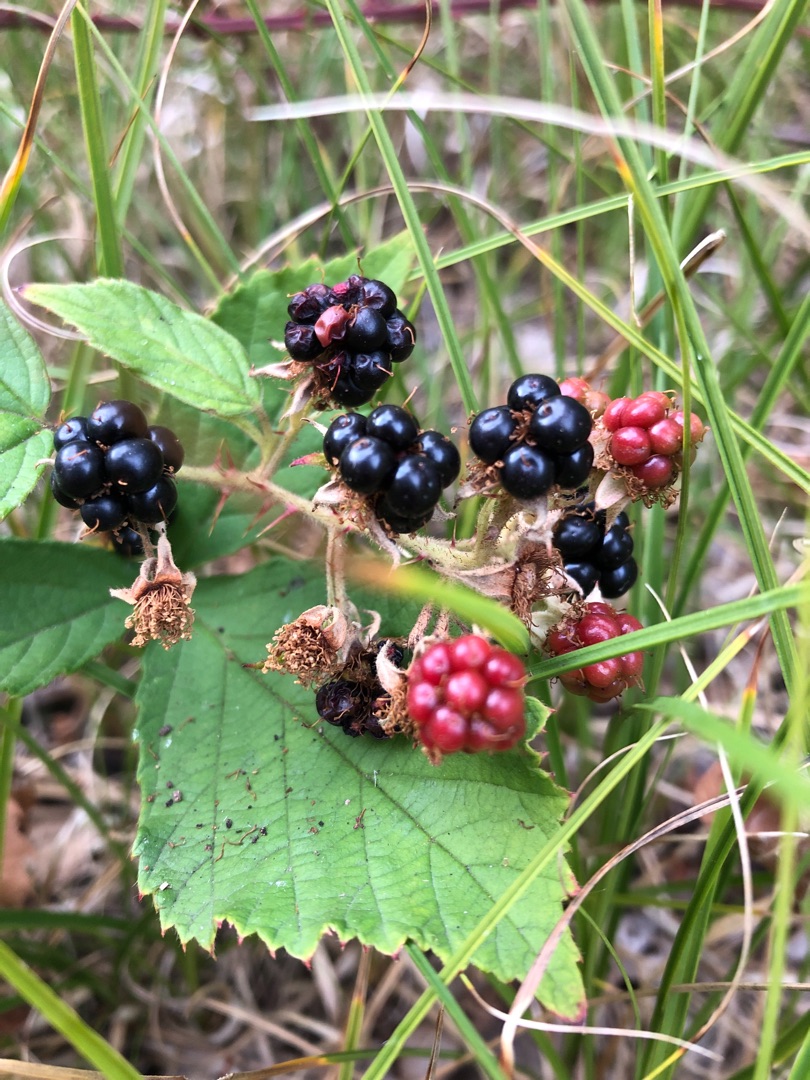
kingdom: Plantae
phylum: Tracheophyta
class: Magnoliopsida
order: Rosales
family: Rosaceae
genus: Rubus
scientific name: Rubus
